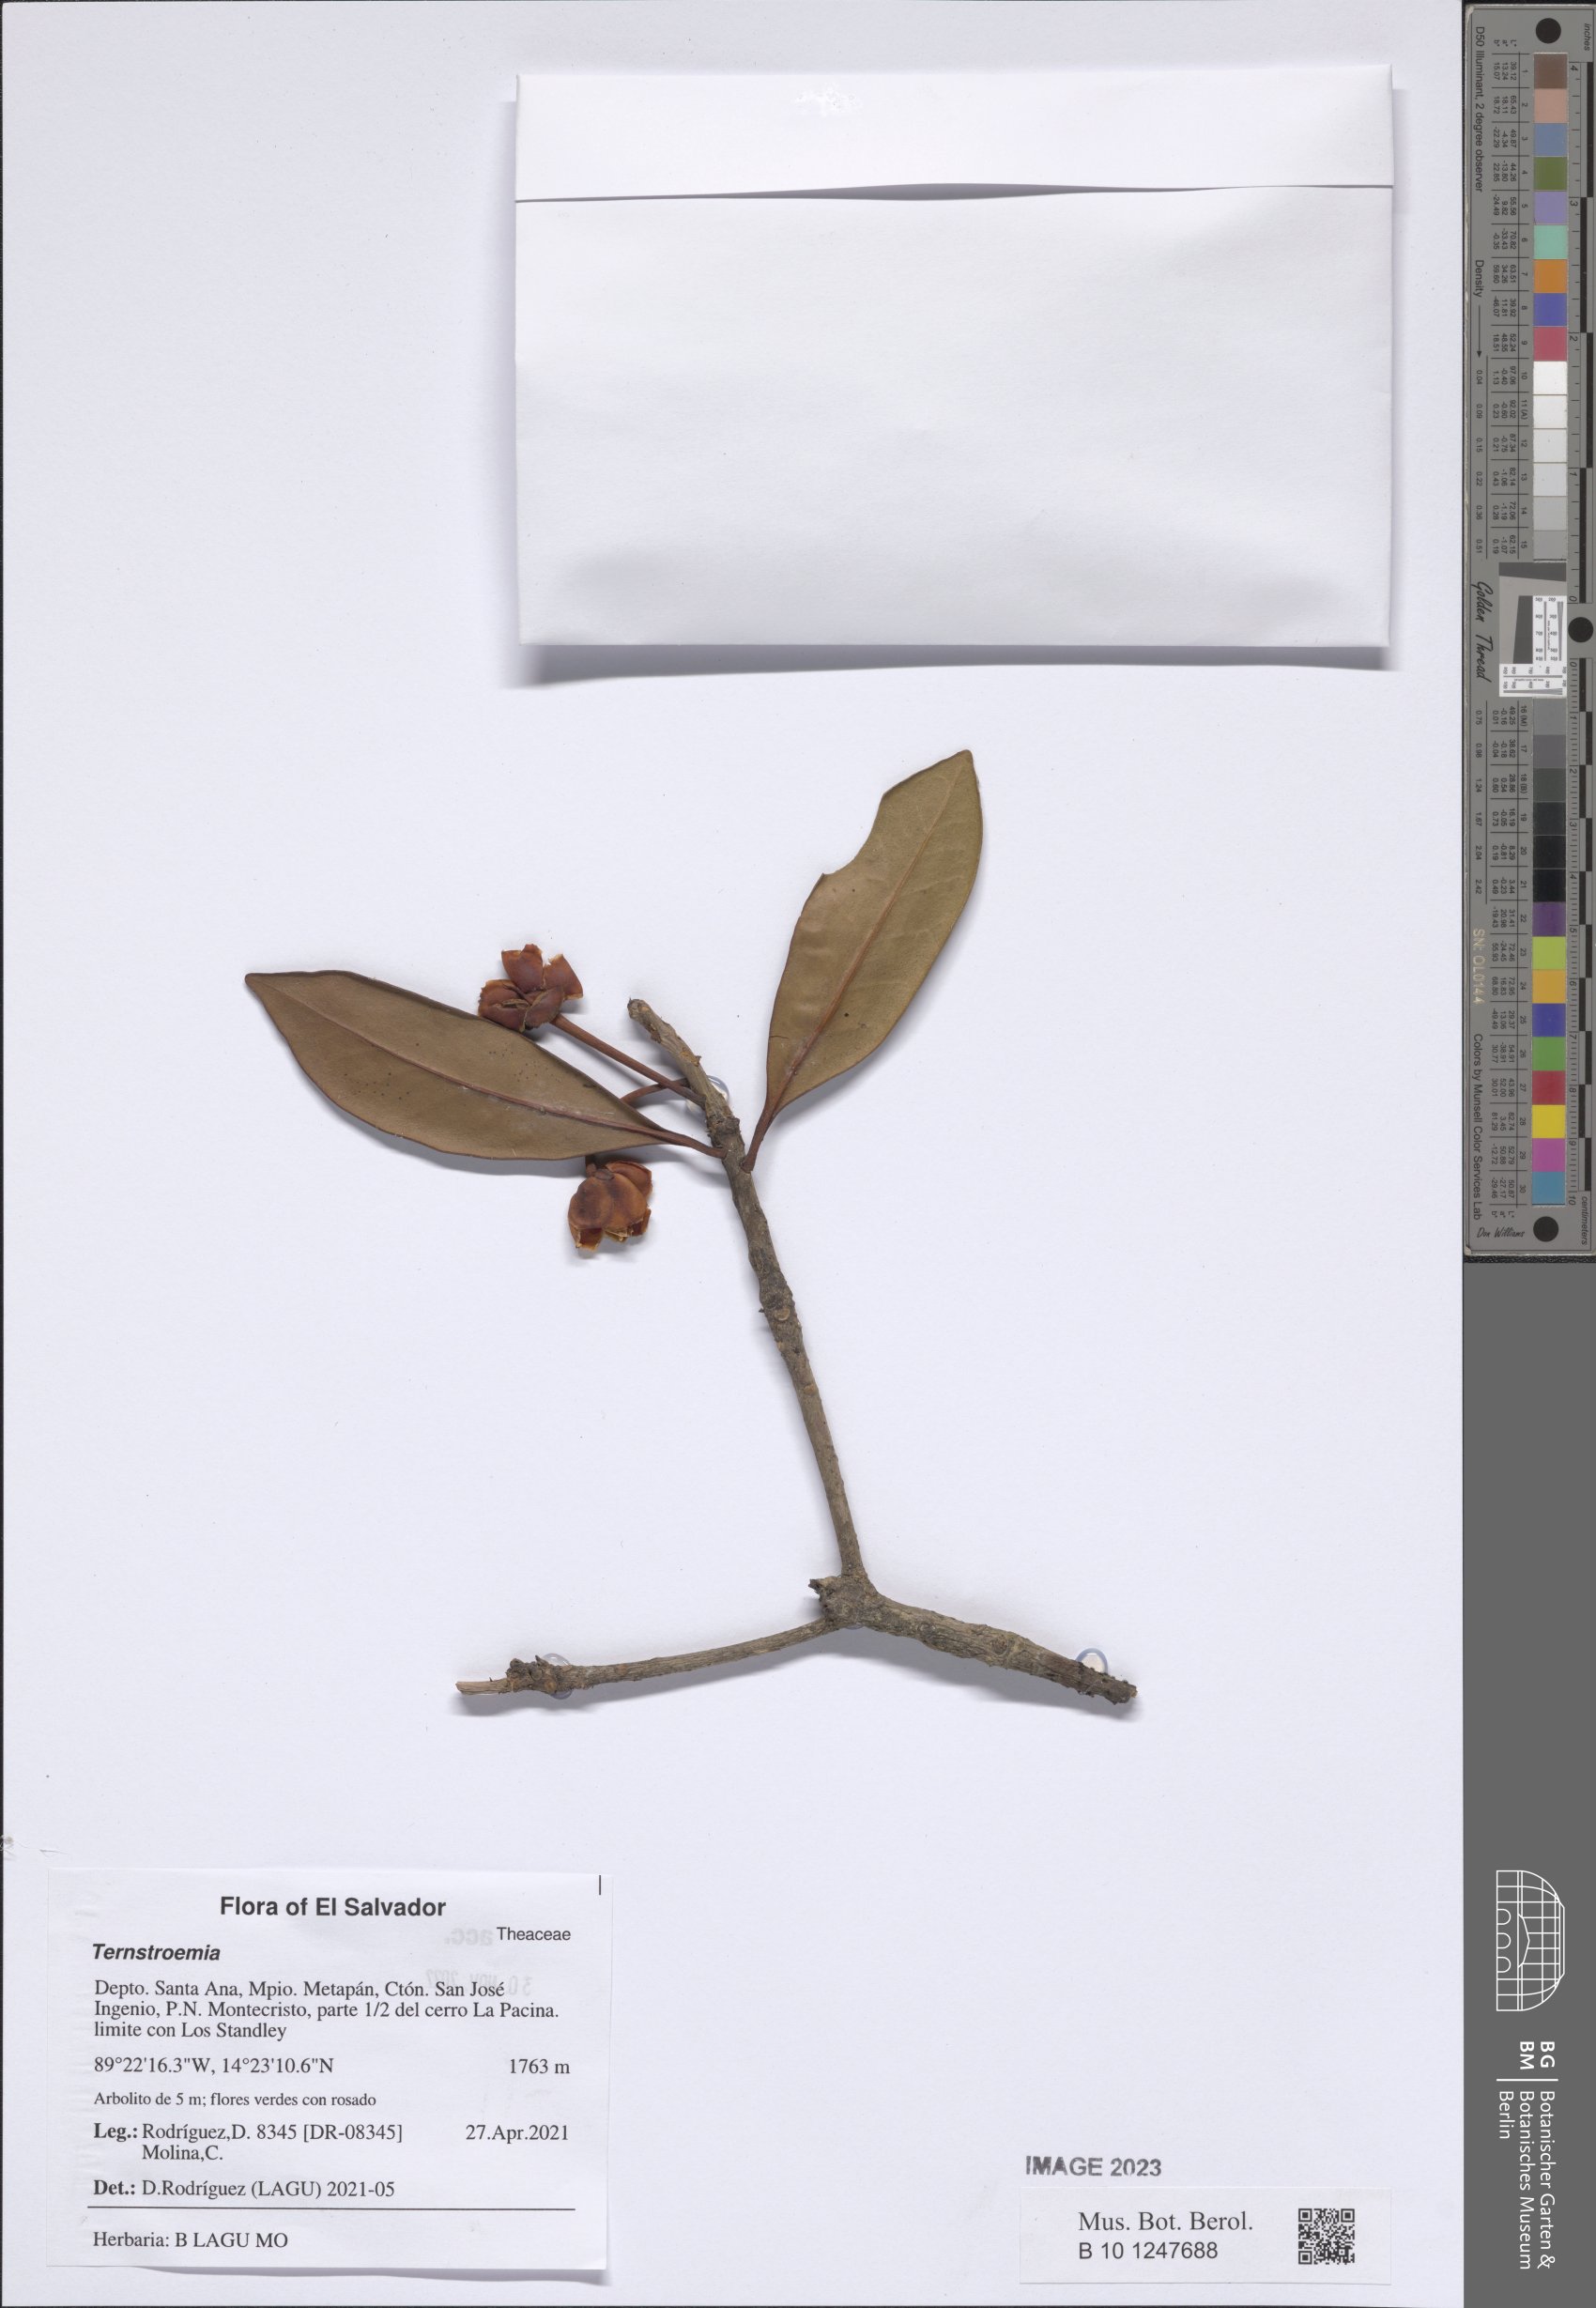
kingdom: Plantae
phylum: Tracheophyta
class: Magnoliopsida
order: Ericales
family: Pentaphylacaceae
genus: Ternstroemia
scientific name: Ternstroemia
